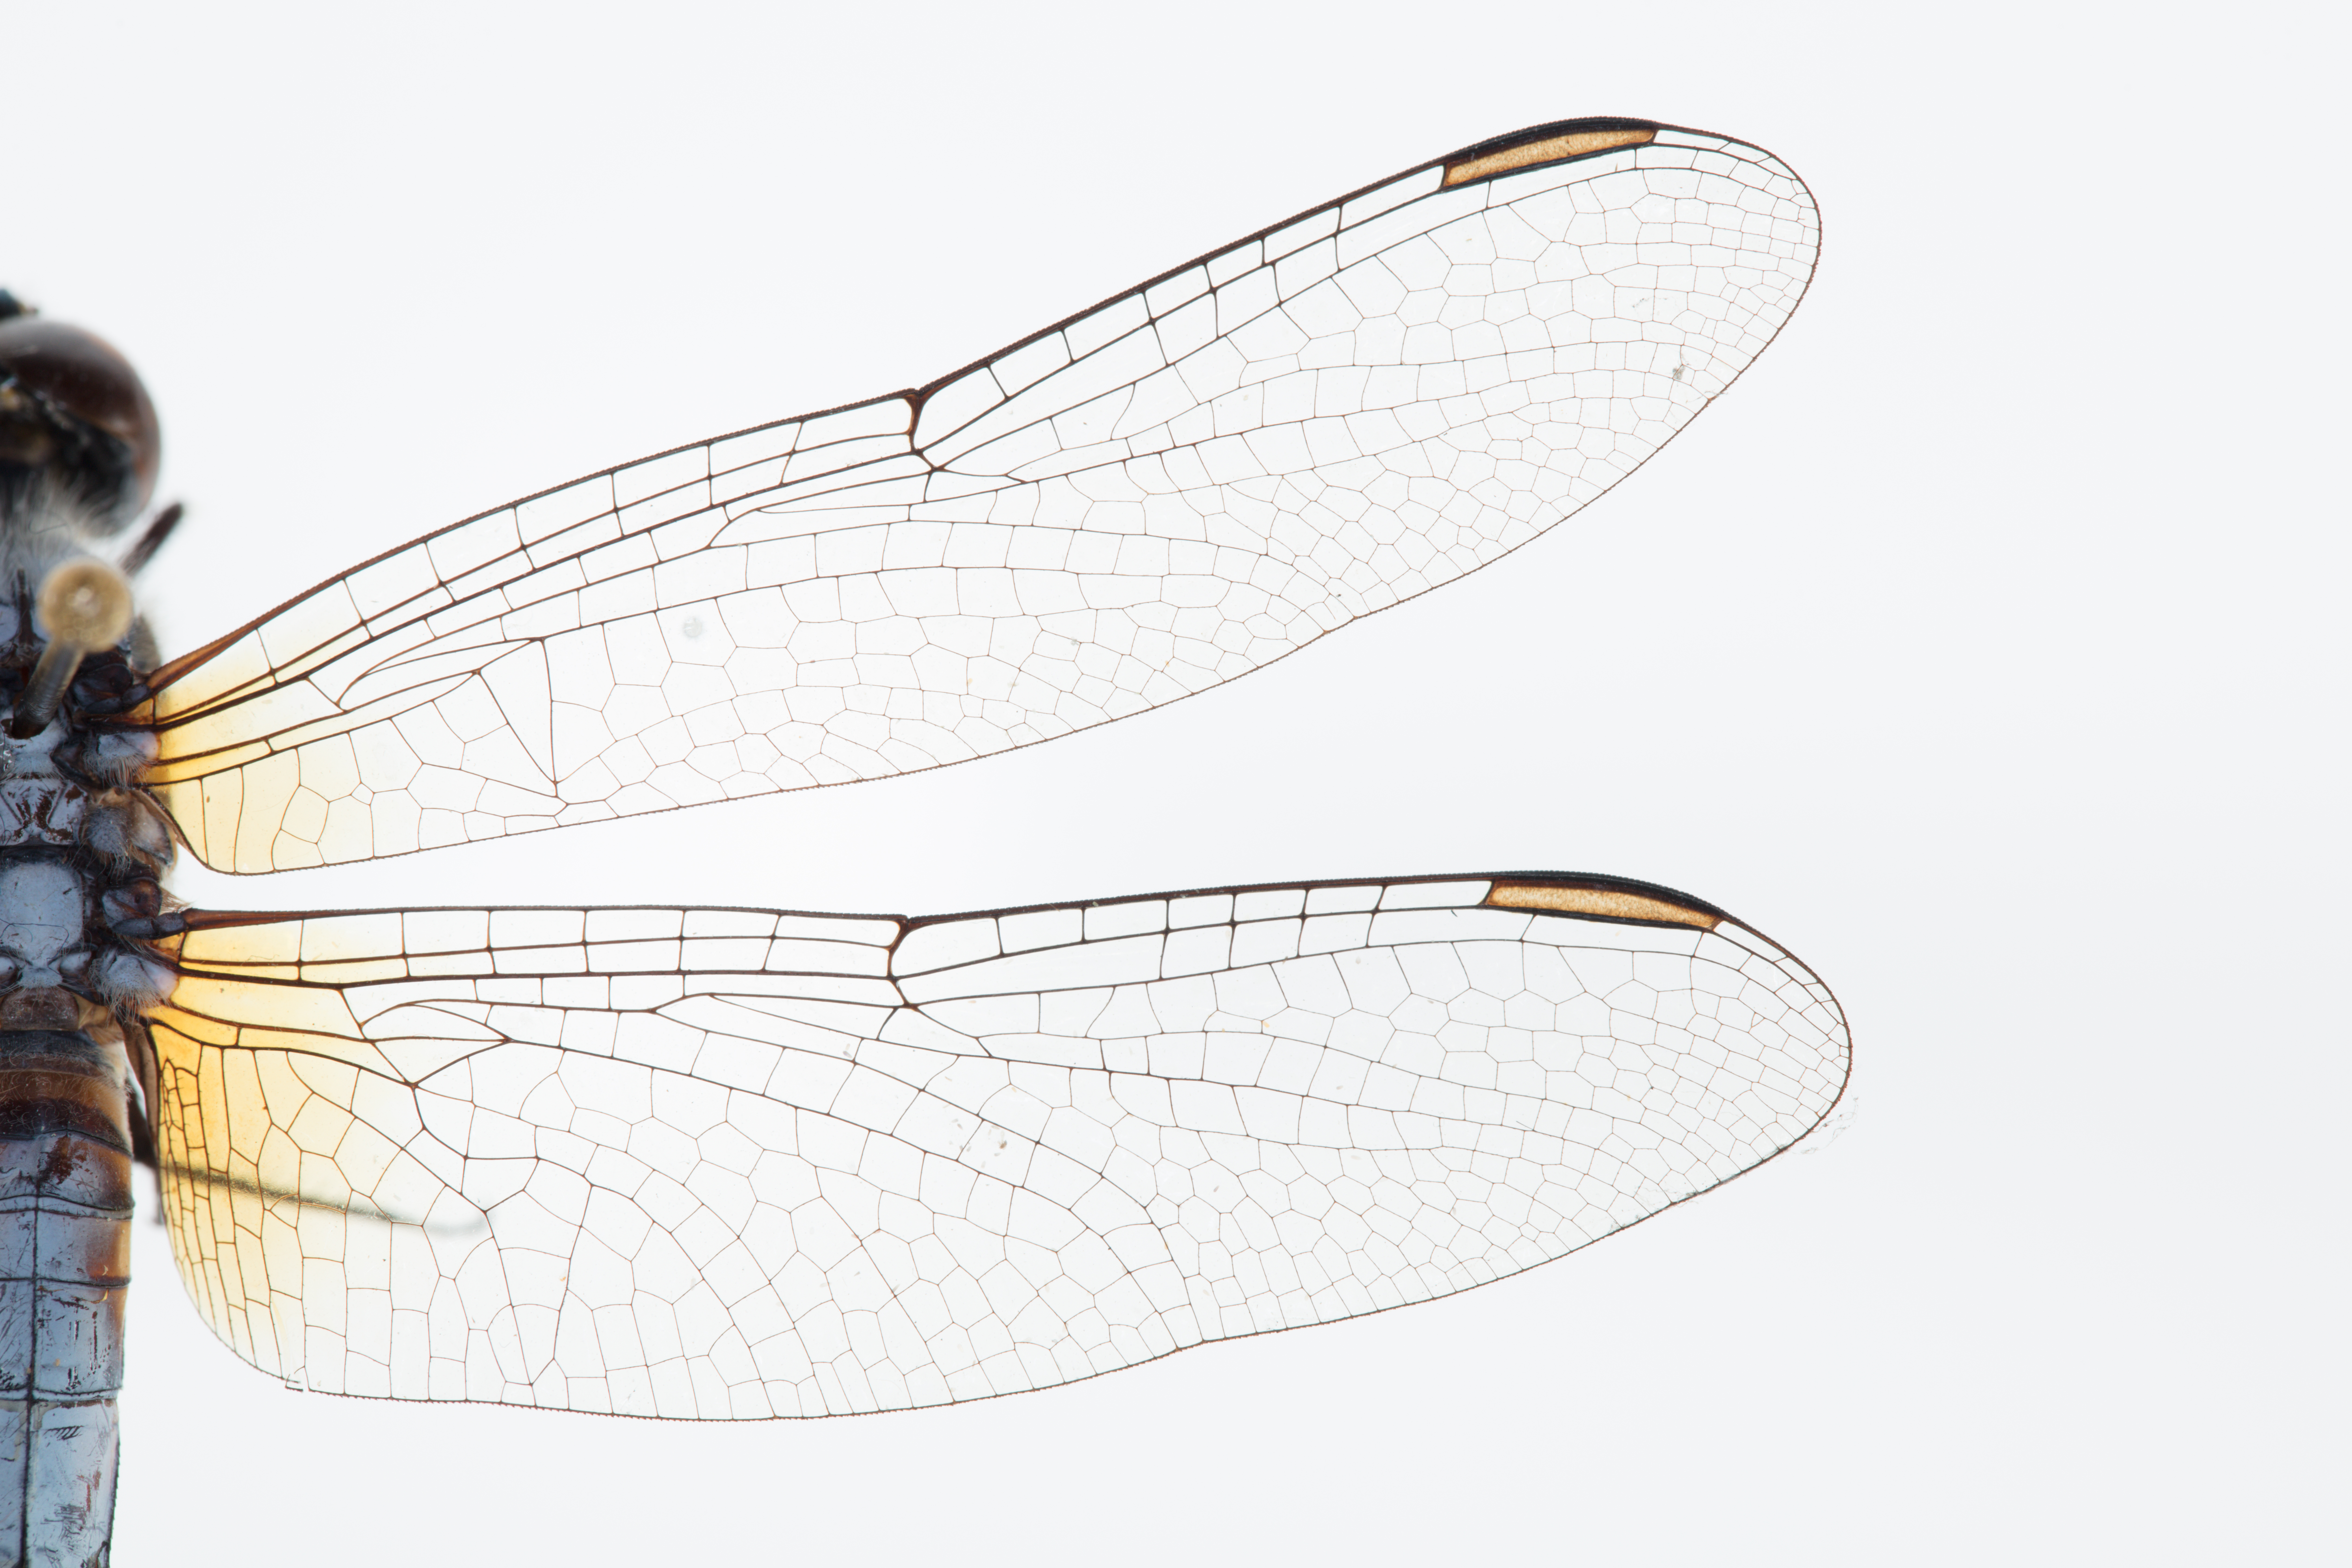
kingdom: Animalia
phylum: Arthropoda
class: Insecta
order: Odonata
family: Libellulidae
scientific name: Libellulidae
